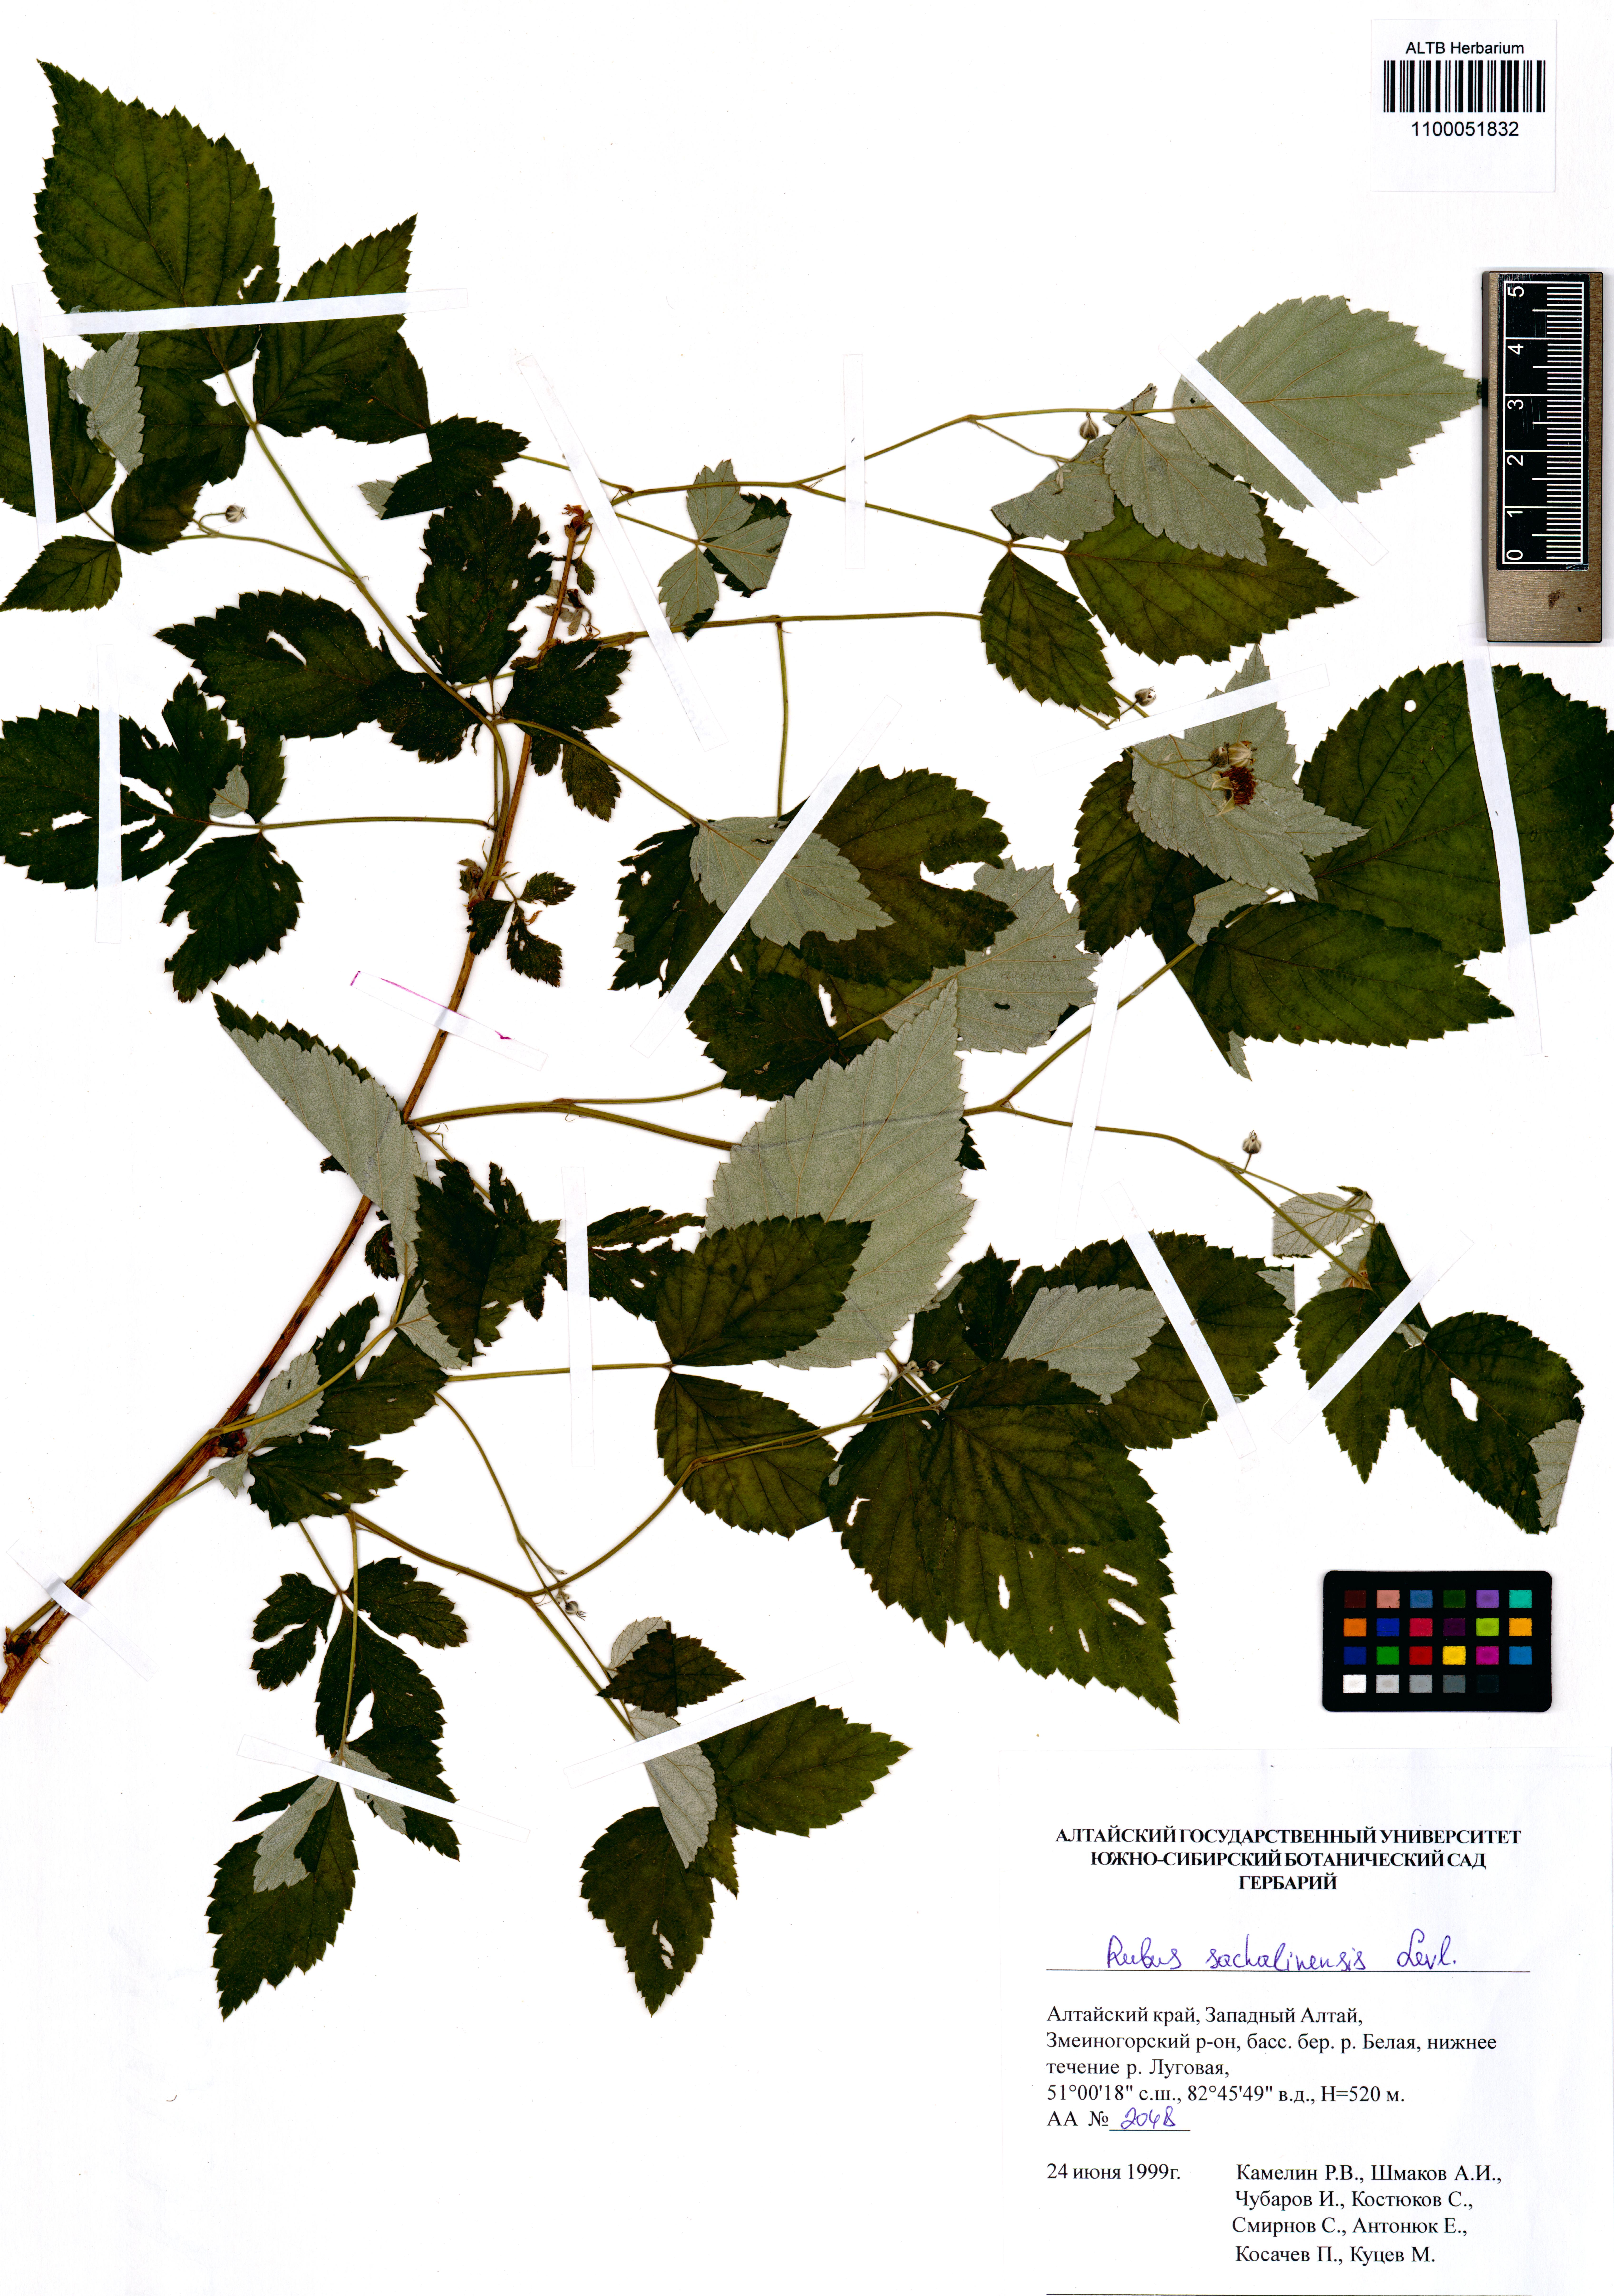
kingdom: Plantae
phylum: Tracheophyta
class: Magnoliopsida
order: Rosales
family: Rosaceae
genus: Rubus
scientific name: Rubus sachalinensis
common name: Red raspberry
